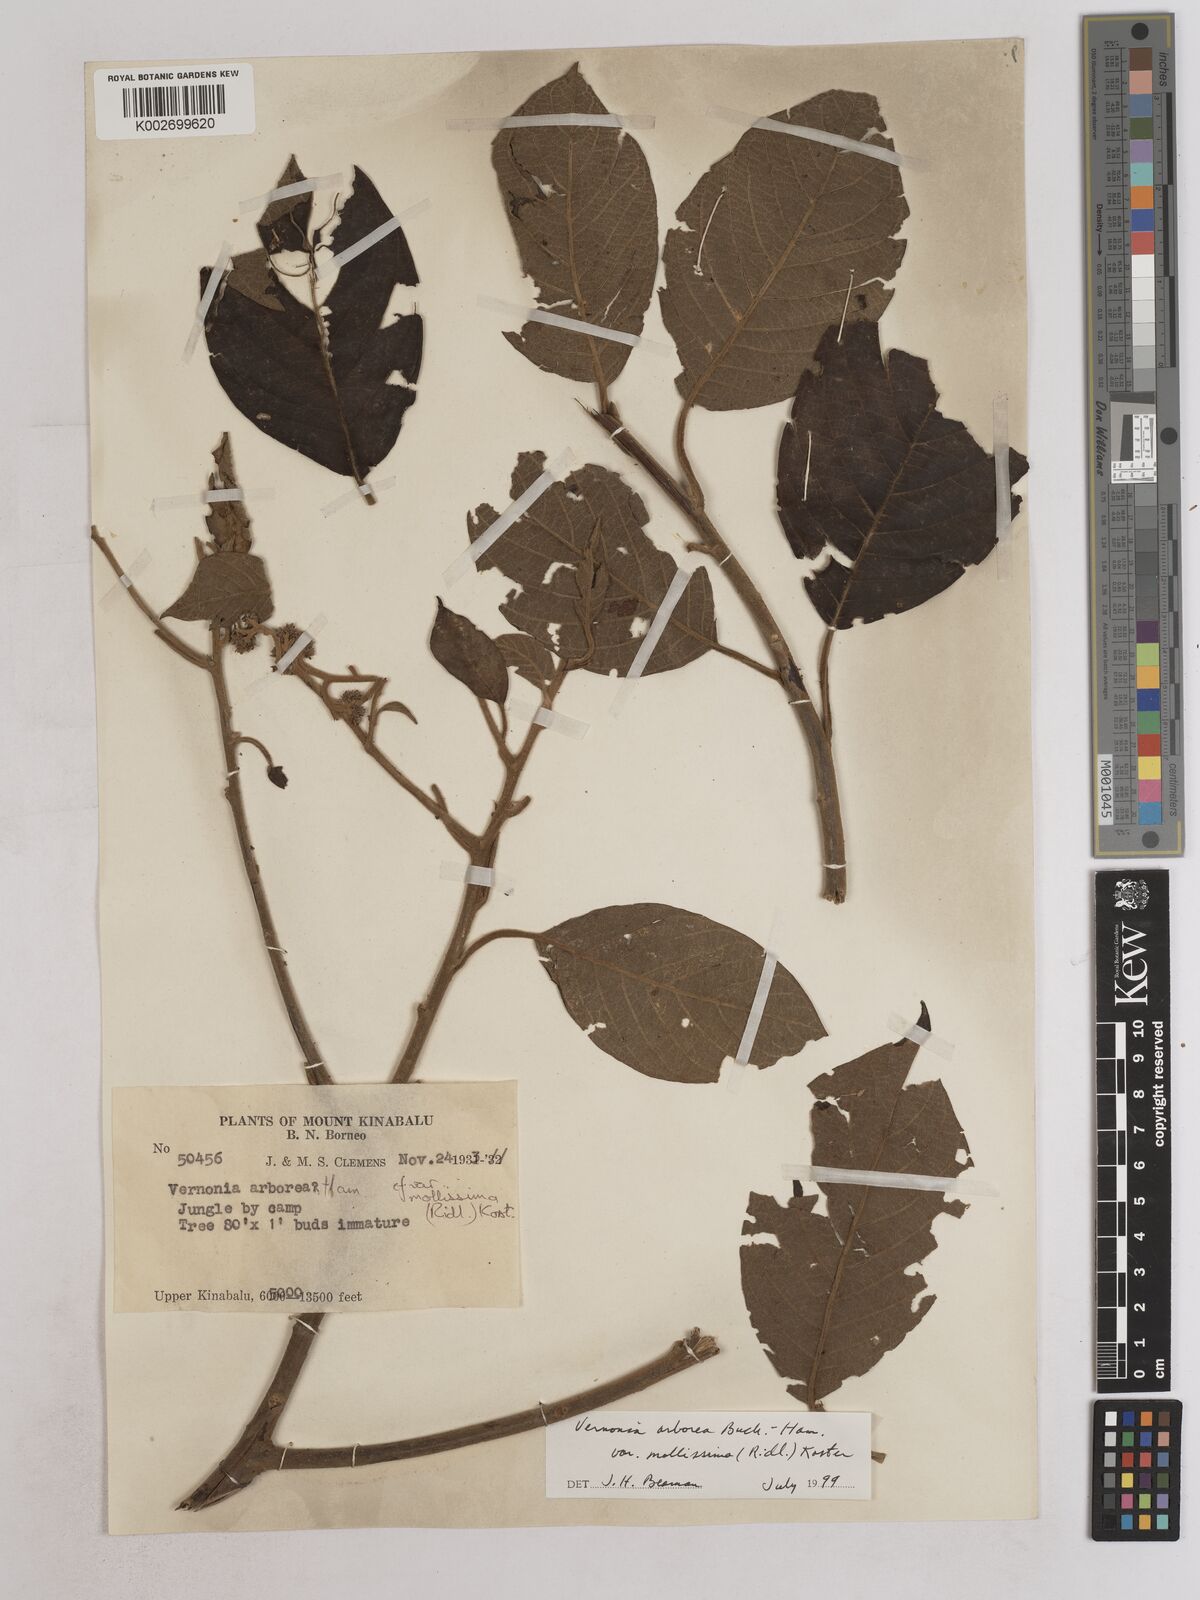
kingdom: Plantae
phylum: Tracheophyta
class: Magnoliopsida
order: Asterales
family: Asteraceae
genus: Strobocalyx
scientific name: Strobocalyx arborea
